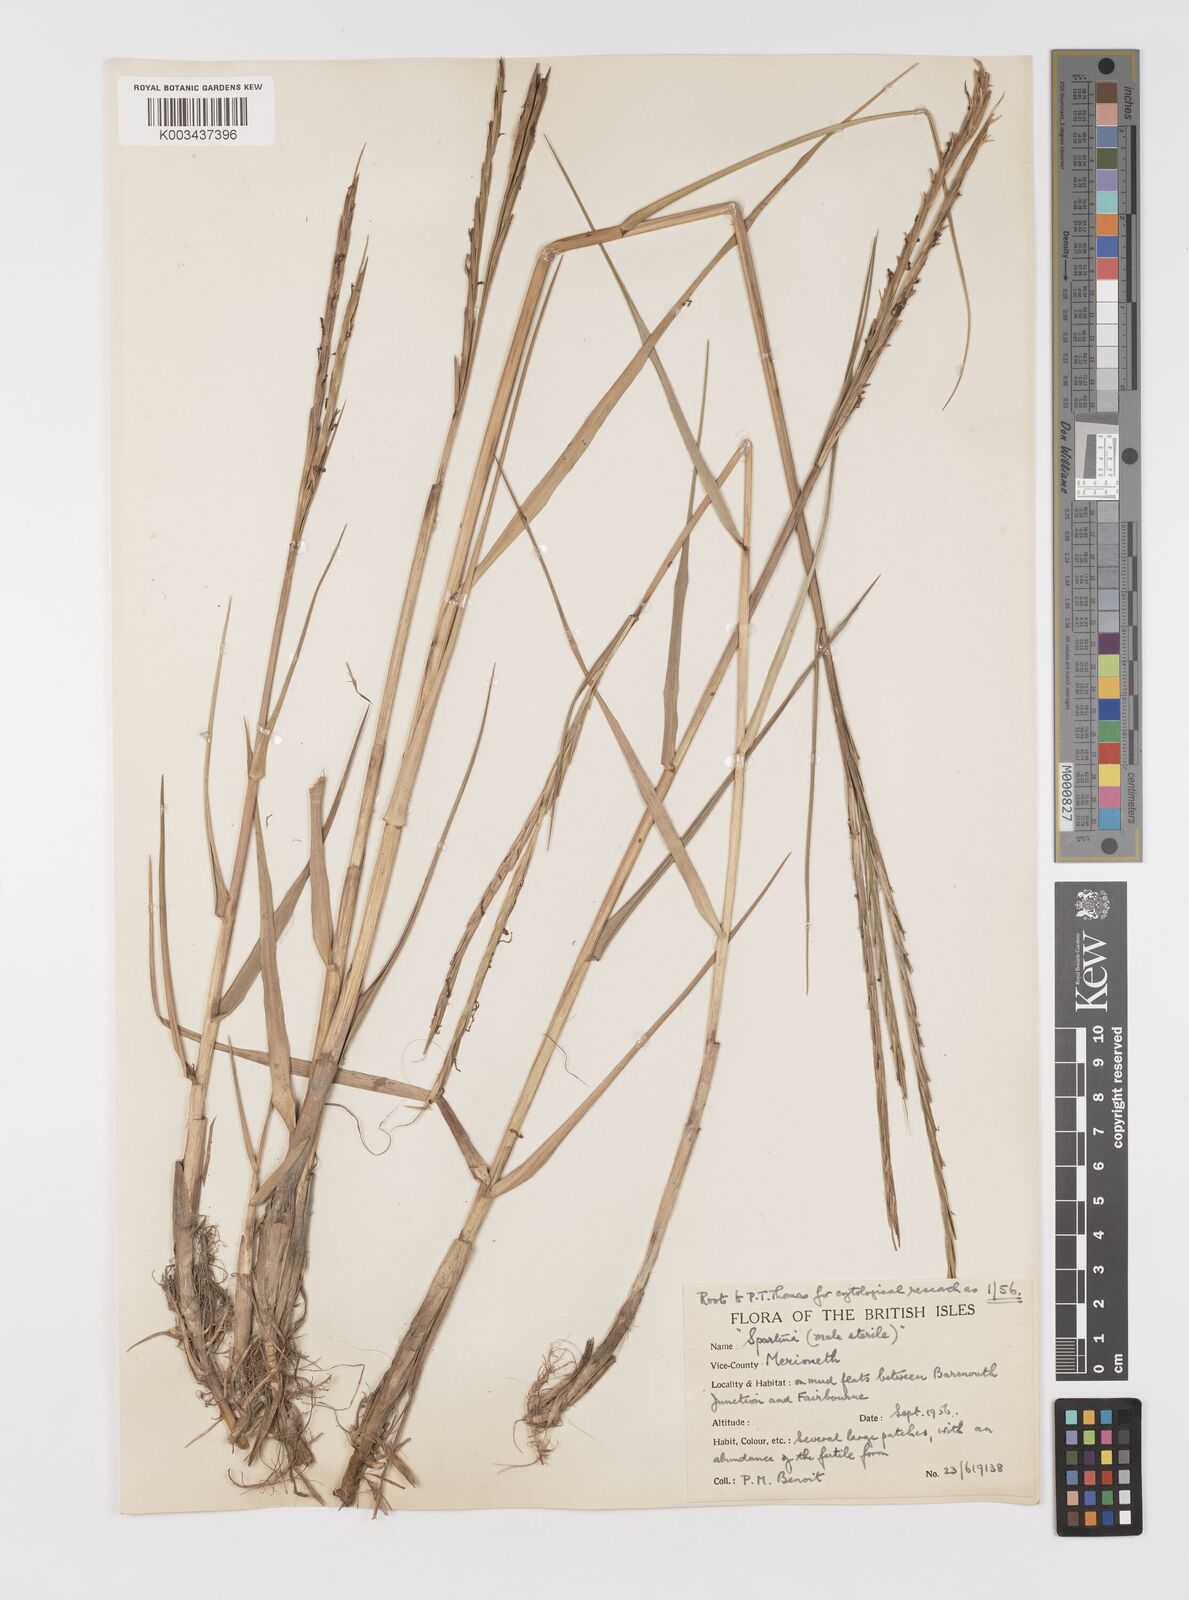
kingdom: Plantae
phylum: Tracheophyta
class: Liliopsida
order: Poales
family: Poaceae
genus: Sporobolus
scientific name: Sporobolus townsendii
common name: Townsend's cordgrass
